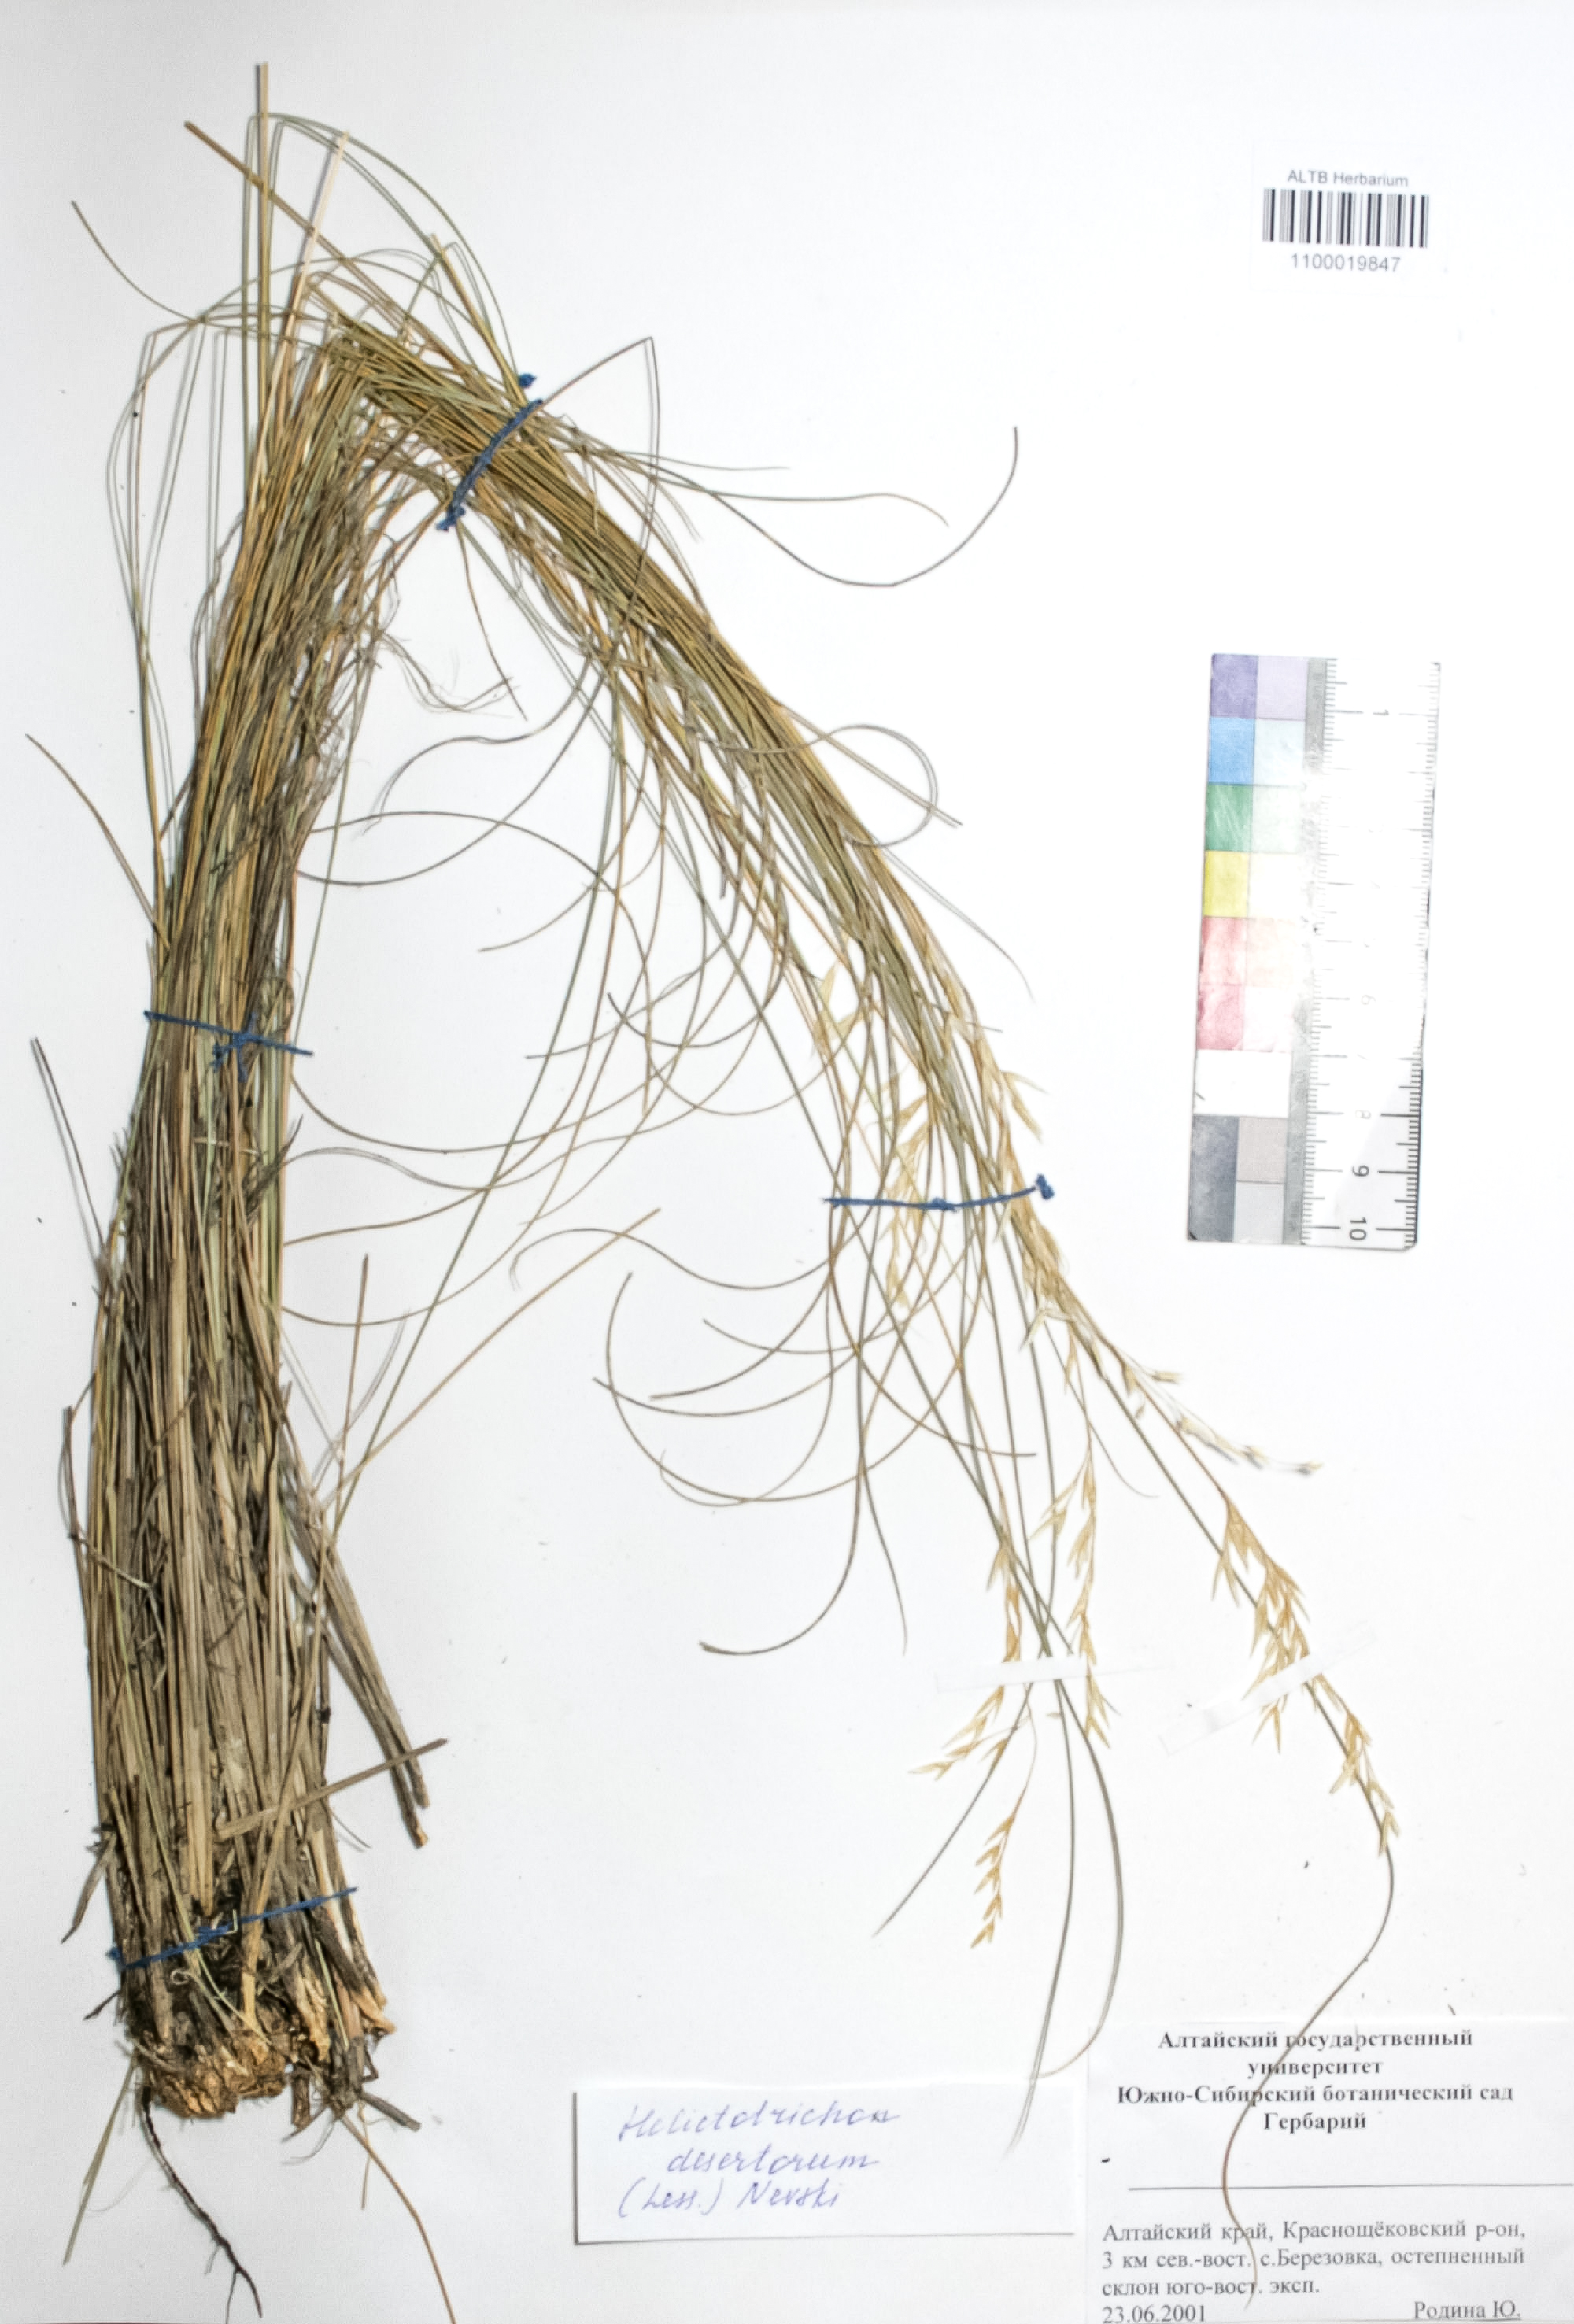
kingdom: Plantae
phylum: Tracheophyta
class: Liliopsida
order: Poales
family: Poaceae
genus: Helictotrichon
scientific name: Helictotrichon desertorum
